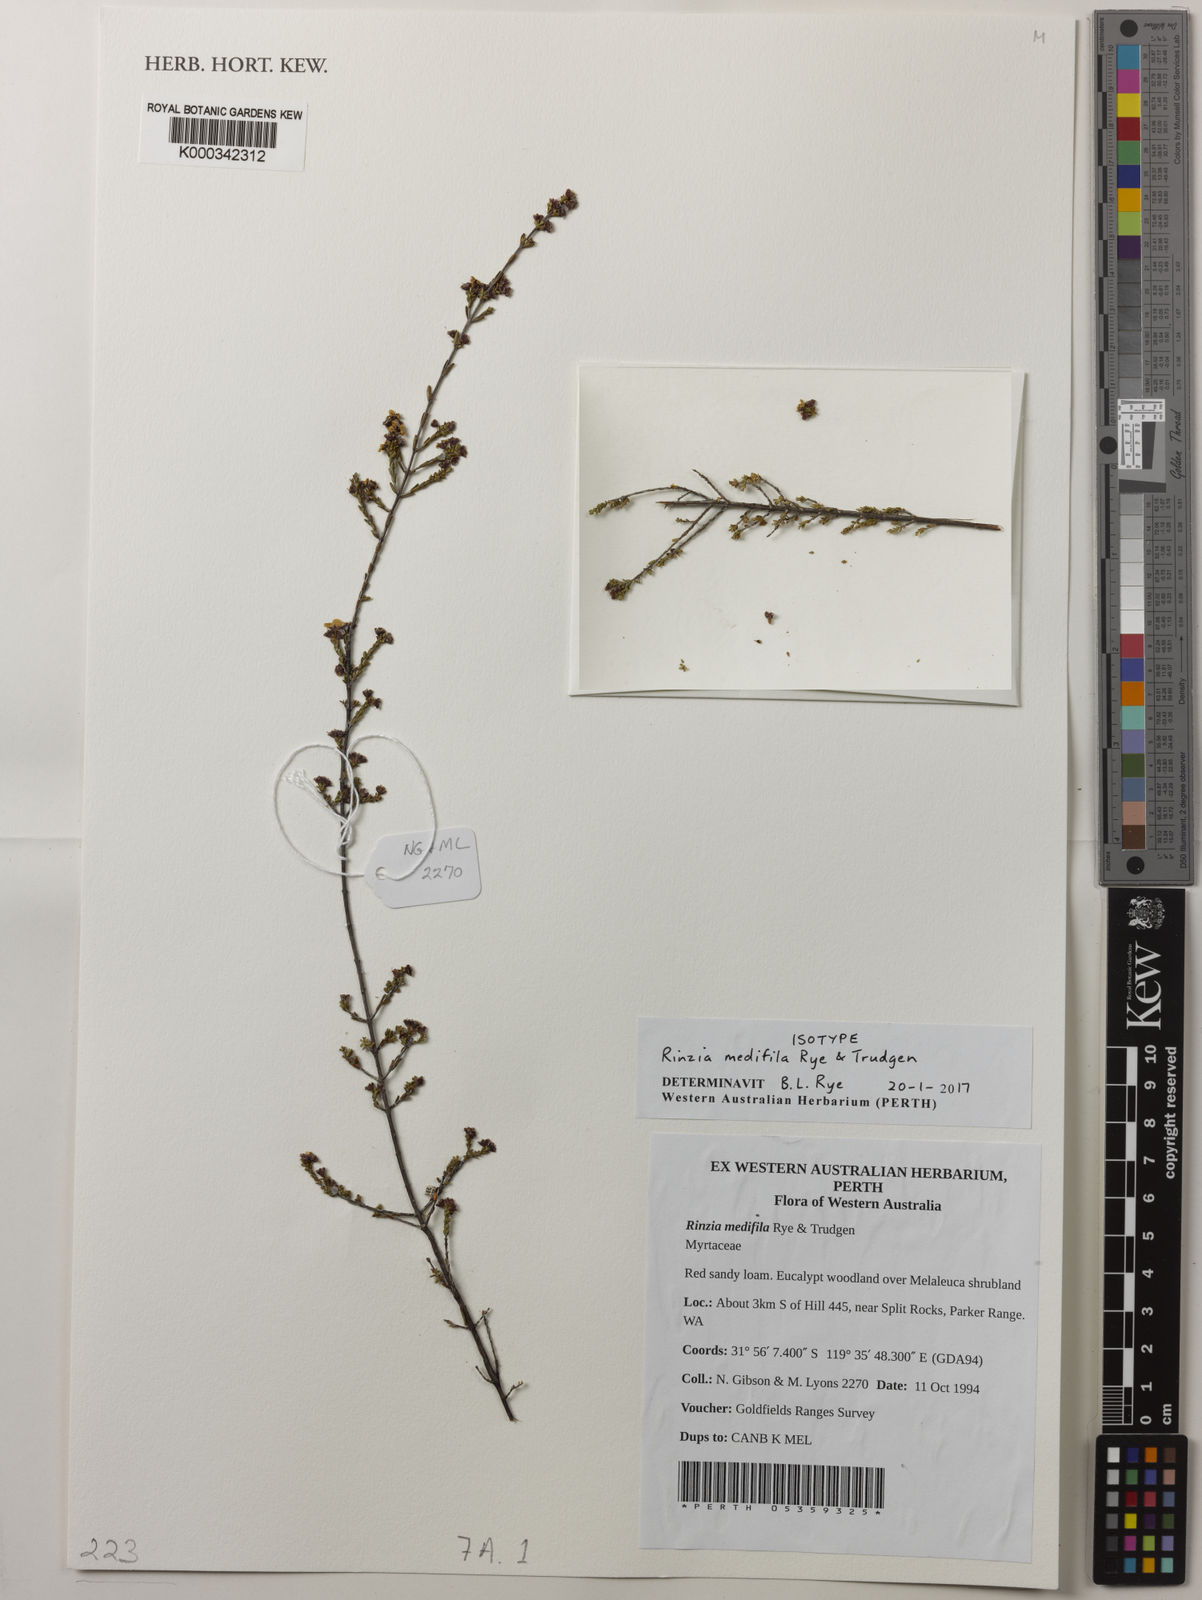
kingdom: Plantae
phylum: Tracheophyta
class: Magnoliopsida
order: Myrtales
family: Myrtaceae
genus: Rinzia
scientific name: Rinzia medifila
